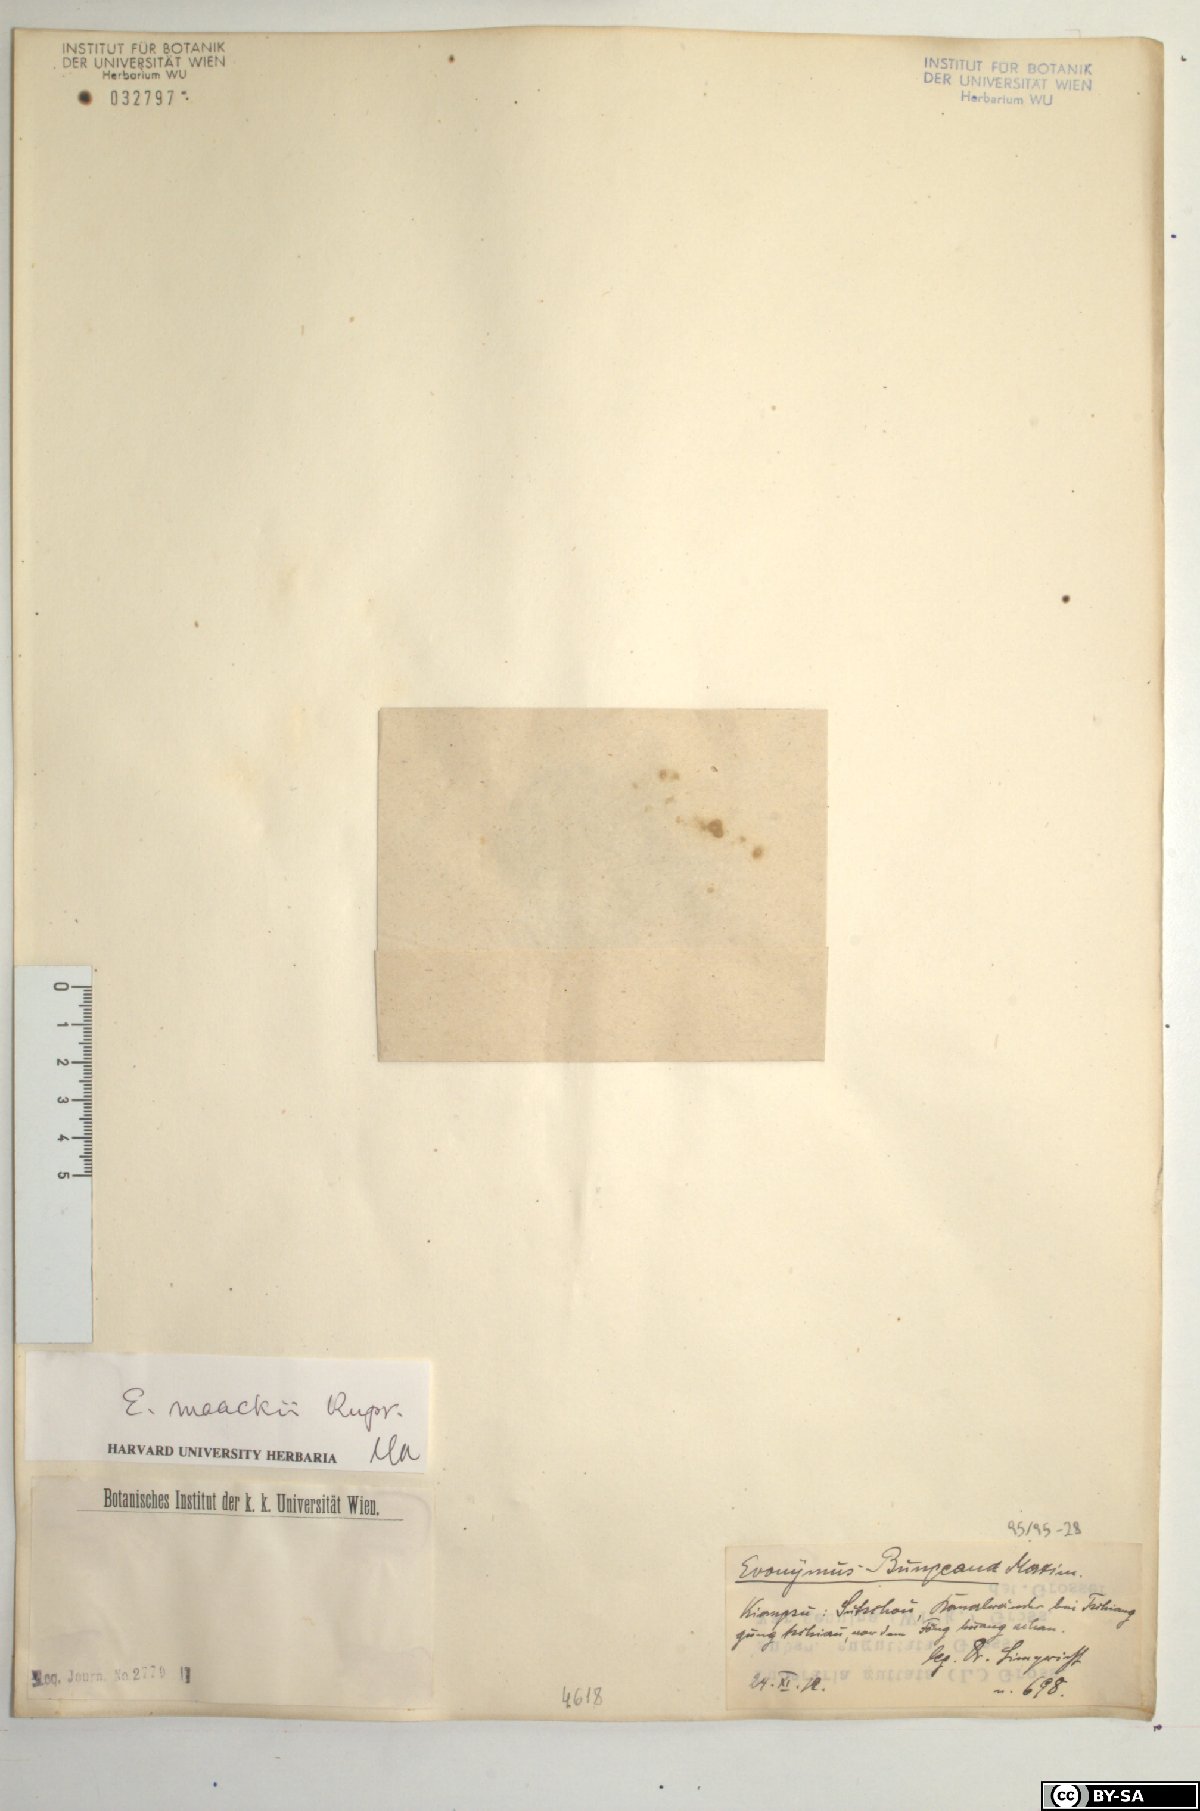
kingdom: Plantae
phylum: Tracheophyta
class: Magnoliopsida
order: Celastrales
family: Celastraceae
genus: Euonymus
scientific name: Euonymus maackii
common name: Hamilton's spindletree
